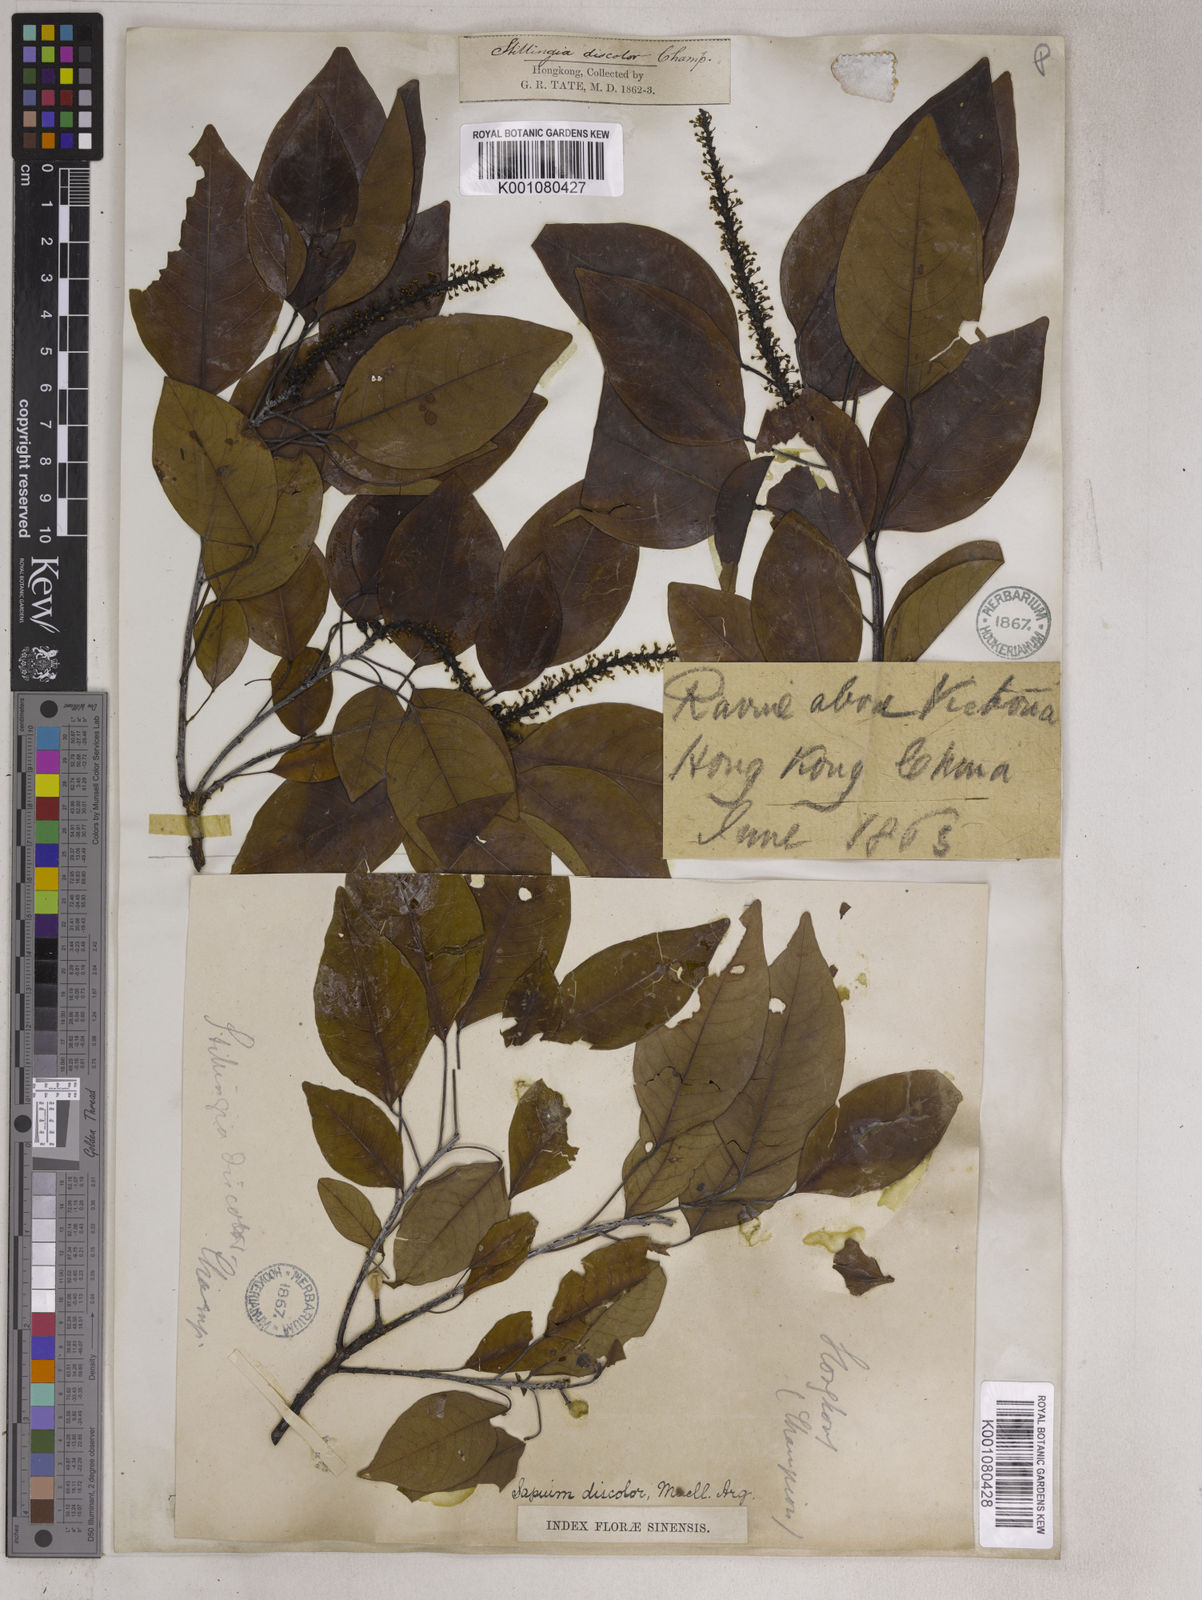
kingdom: Plantae
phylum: Tracheophyta
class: Magnoliopsida
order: Malpighiales
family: Euphorbiaceae
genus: Triadica
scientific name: Triadica cochinchinensis
